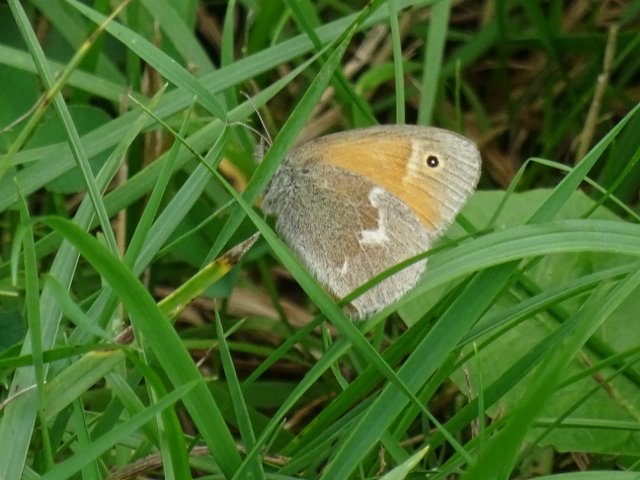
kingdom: Animalia
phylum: Arthropoda
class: Insecta
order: Lepidoptera
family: Nymphalidae
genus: Coenonympha
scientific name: Coenonympha tullia
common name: Large Heath
